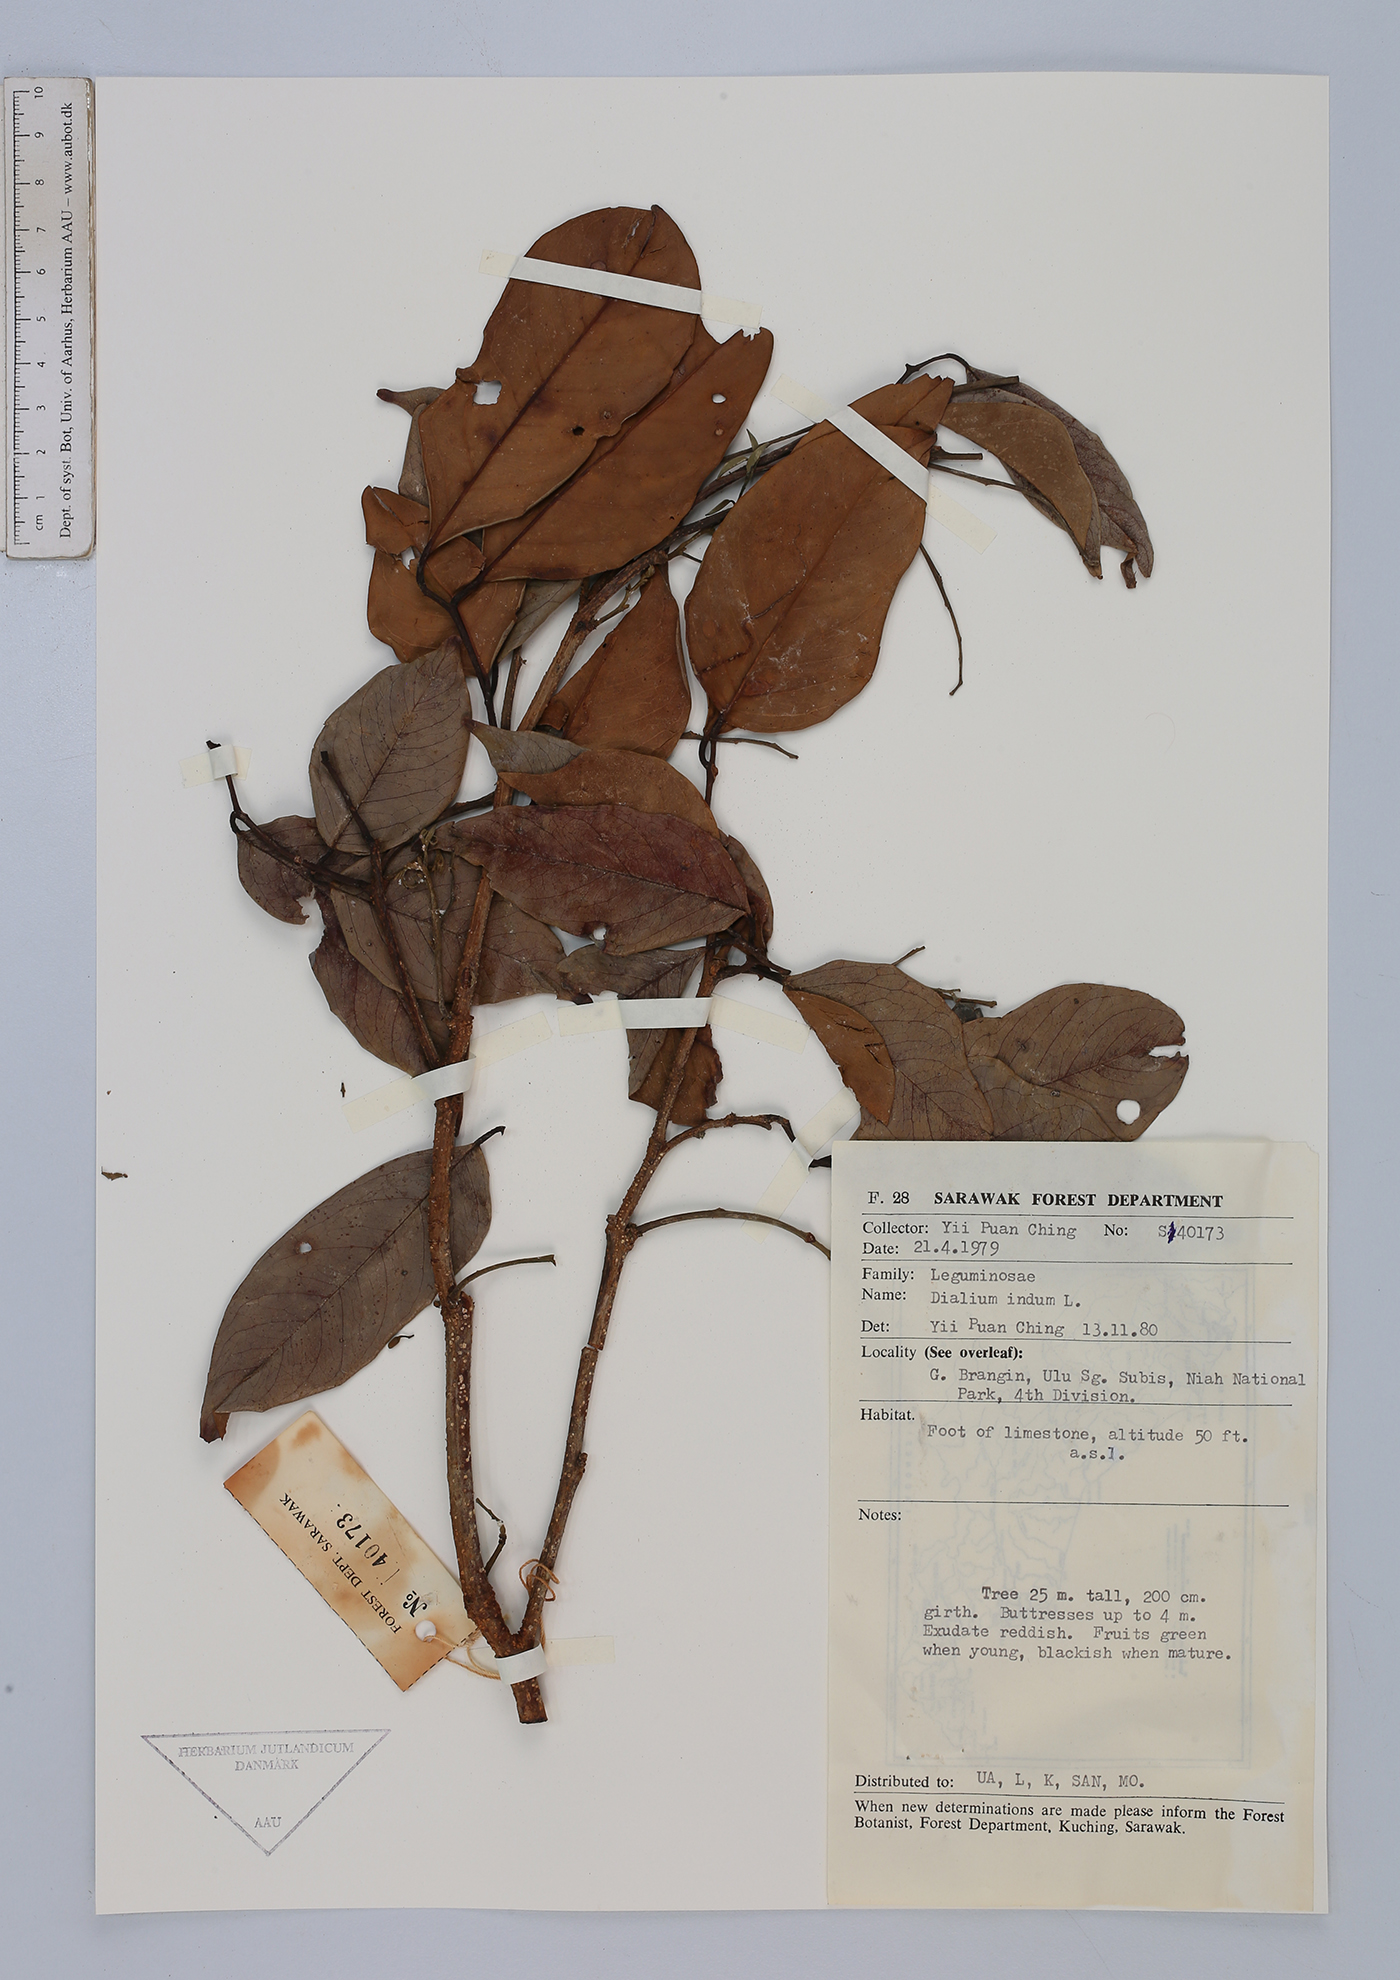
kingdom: Plantae
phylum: Tracheophyta
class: Magnoliopsida
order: Fabales
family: Fabaceae
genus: Dialium
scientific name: Dialium indum
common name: Tamarind-plum
